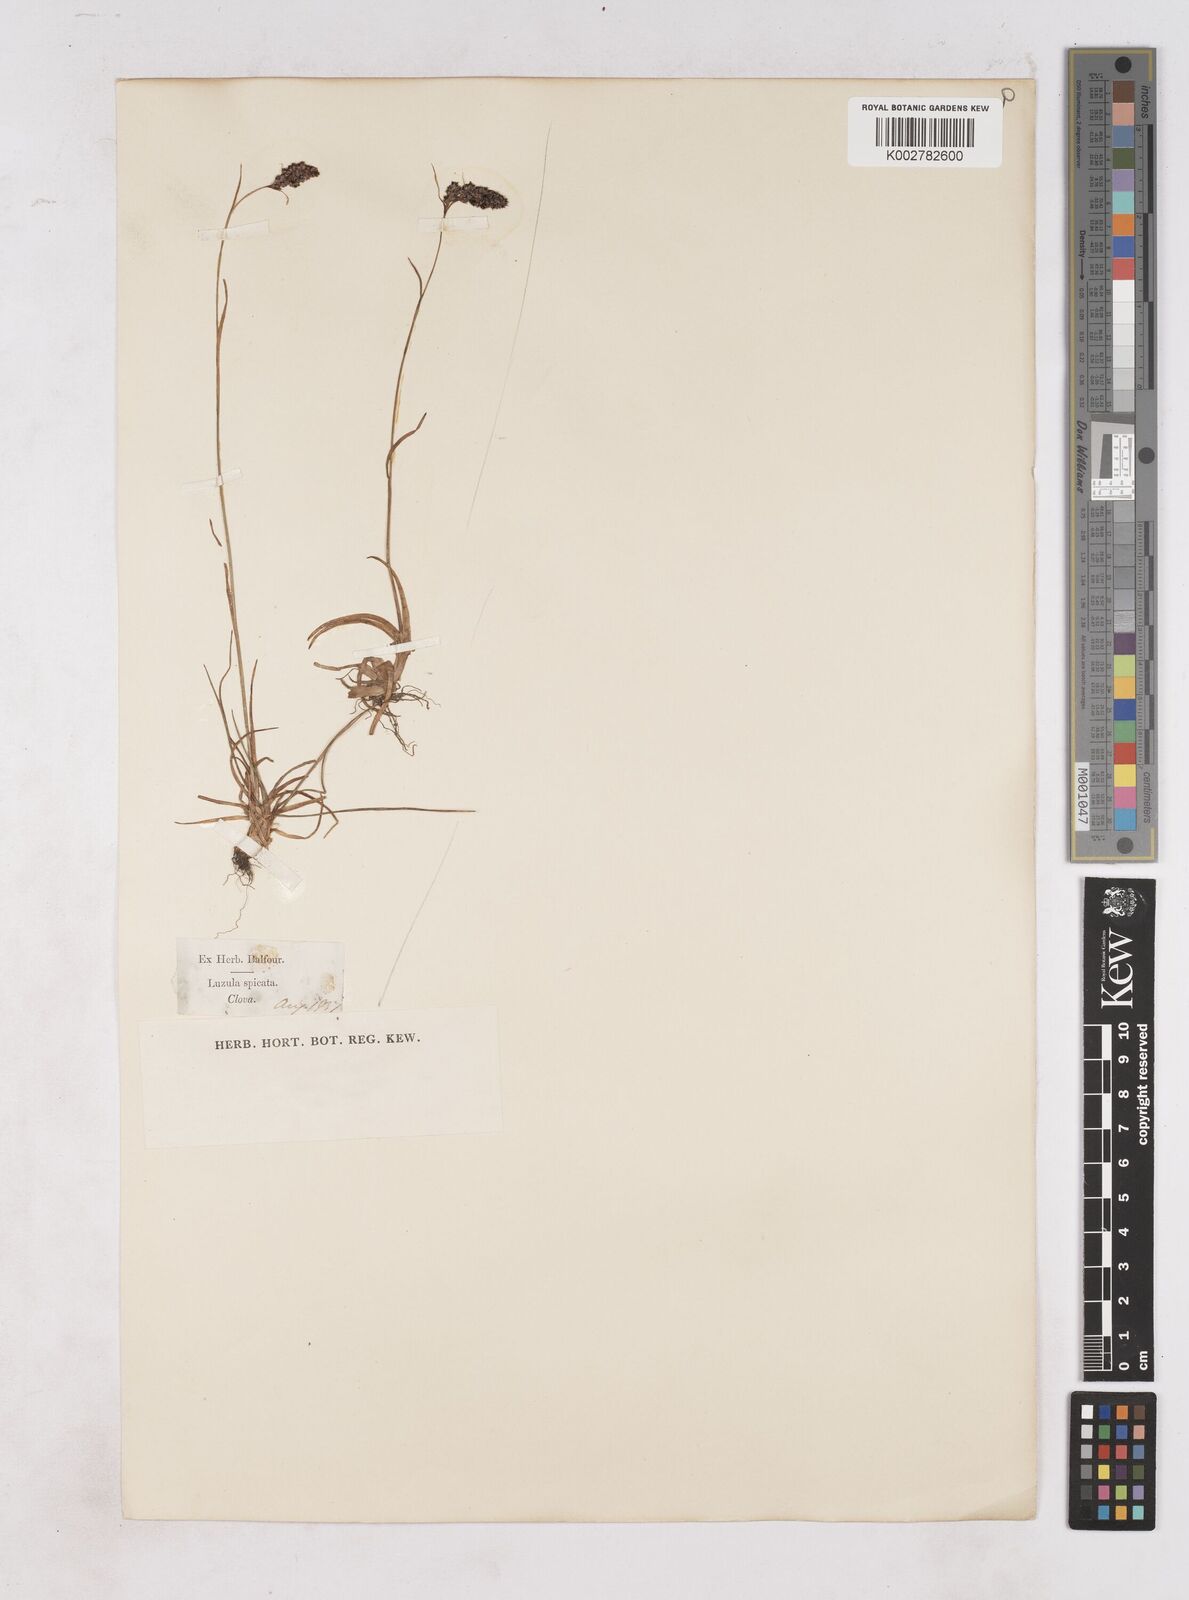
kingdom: Plantae
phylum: Tracheophyta
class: Liliopsida
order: Poales
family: Juncaceae
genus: Luzula
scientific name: Luzula spicata
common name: Spiked wood-rush
